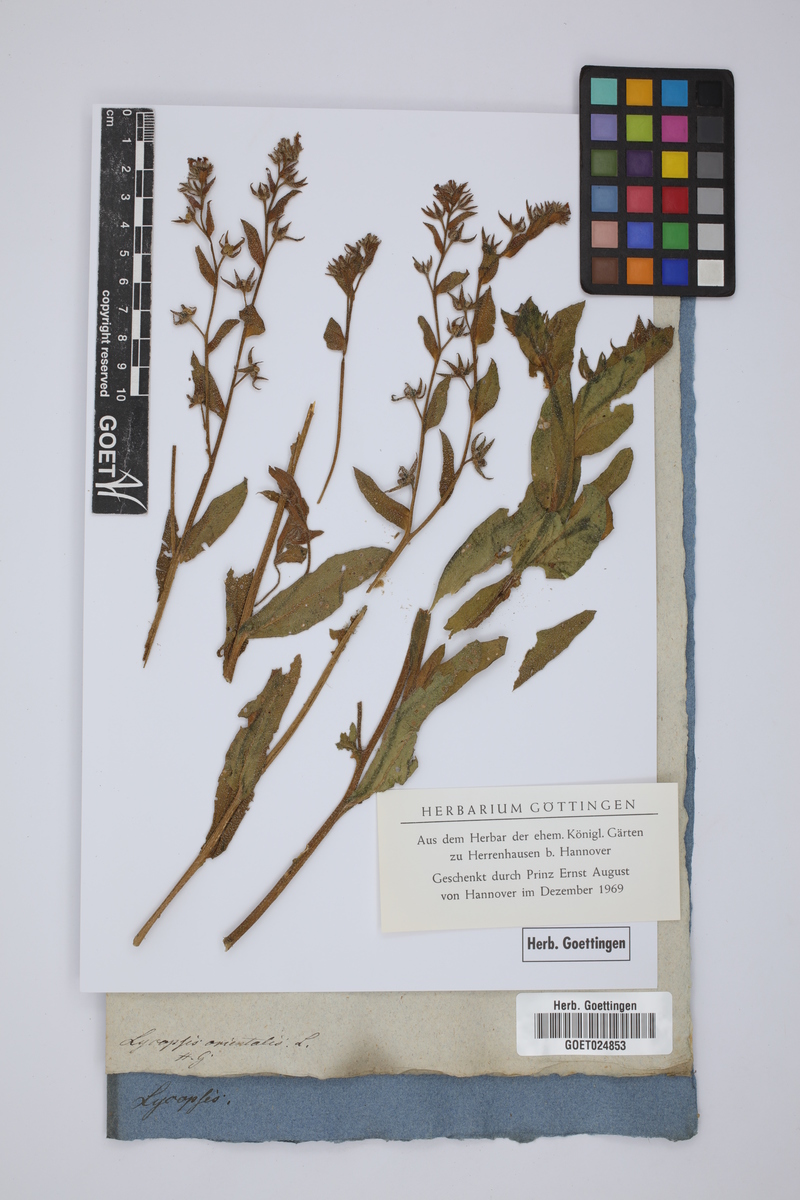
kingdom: Plantae
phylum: Tracheophyta
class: Magnoliopsida
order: Boraginales
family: Boraginaceae
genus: Lycopsis
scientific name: Lycopsis arvensis
